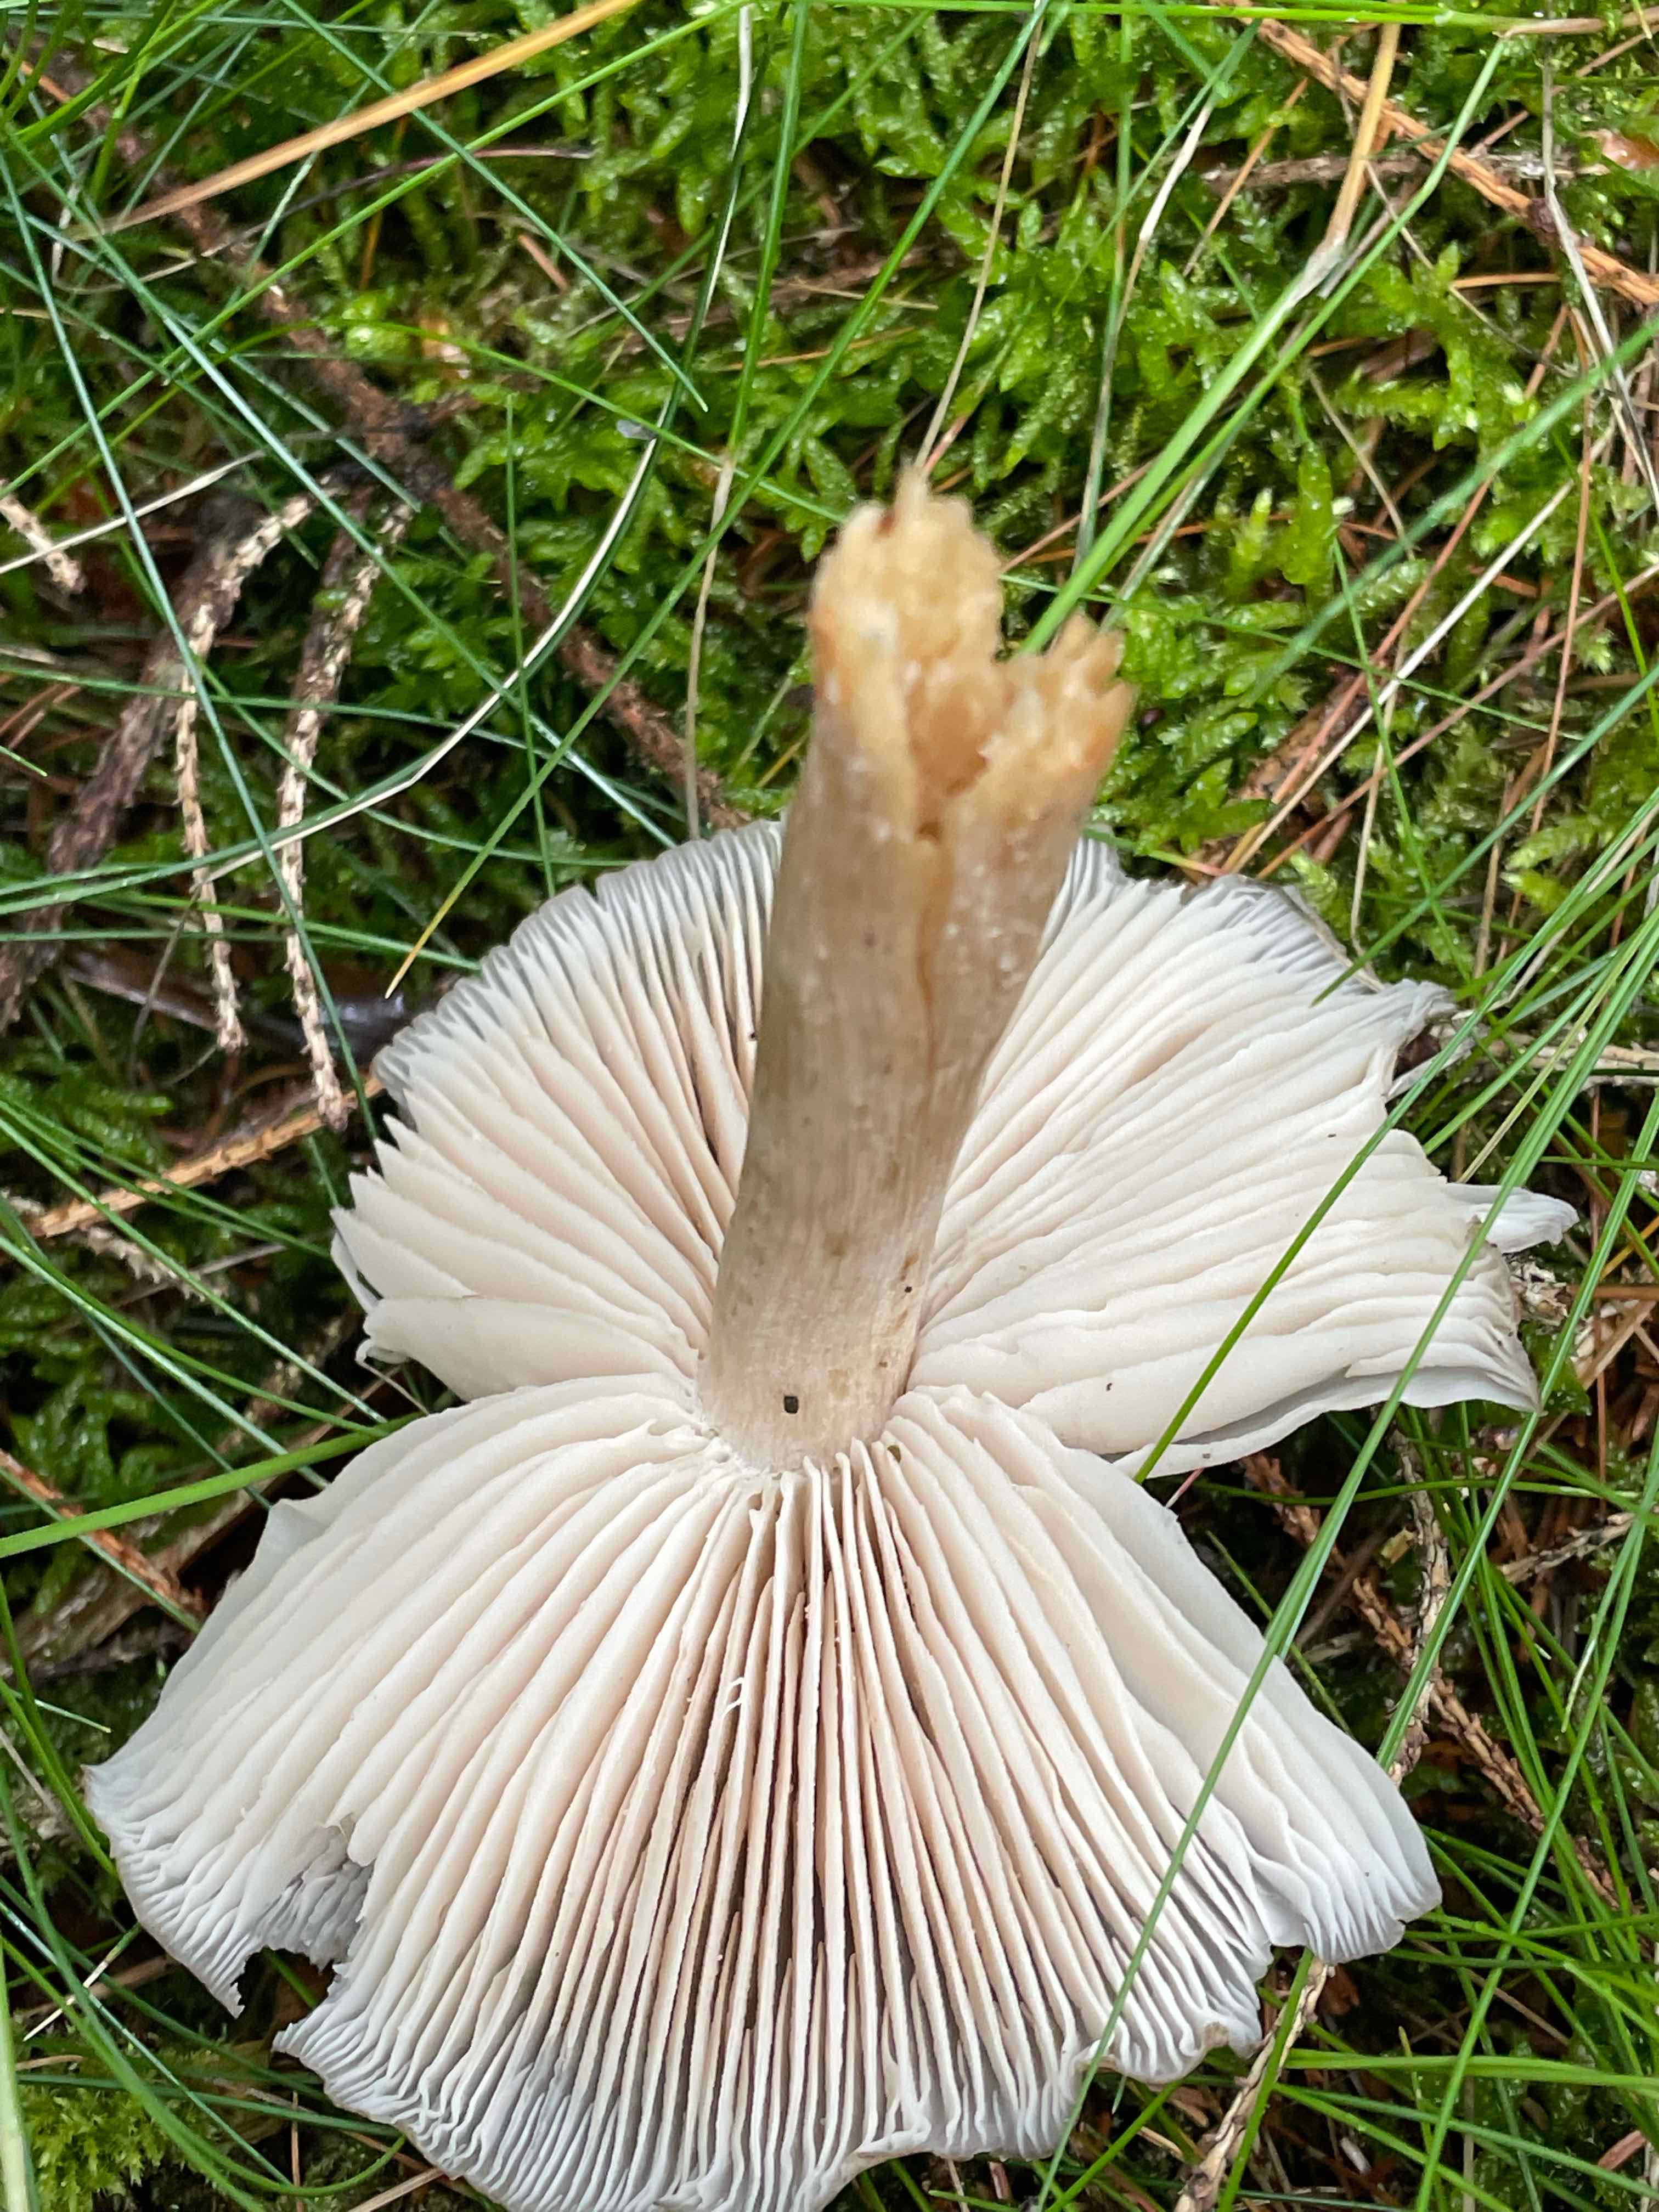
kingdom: Fungi
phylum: Basidiomycota
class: Agaricomycetes
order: Agaricales
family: Tricholomataceae
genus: Megacollybia
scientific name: Megacollybia platyphylla
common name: bredbladet væbnerhat
